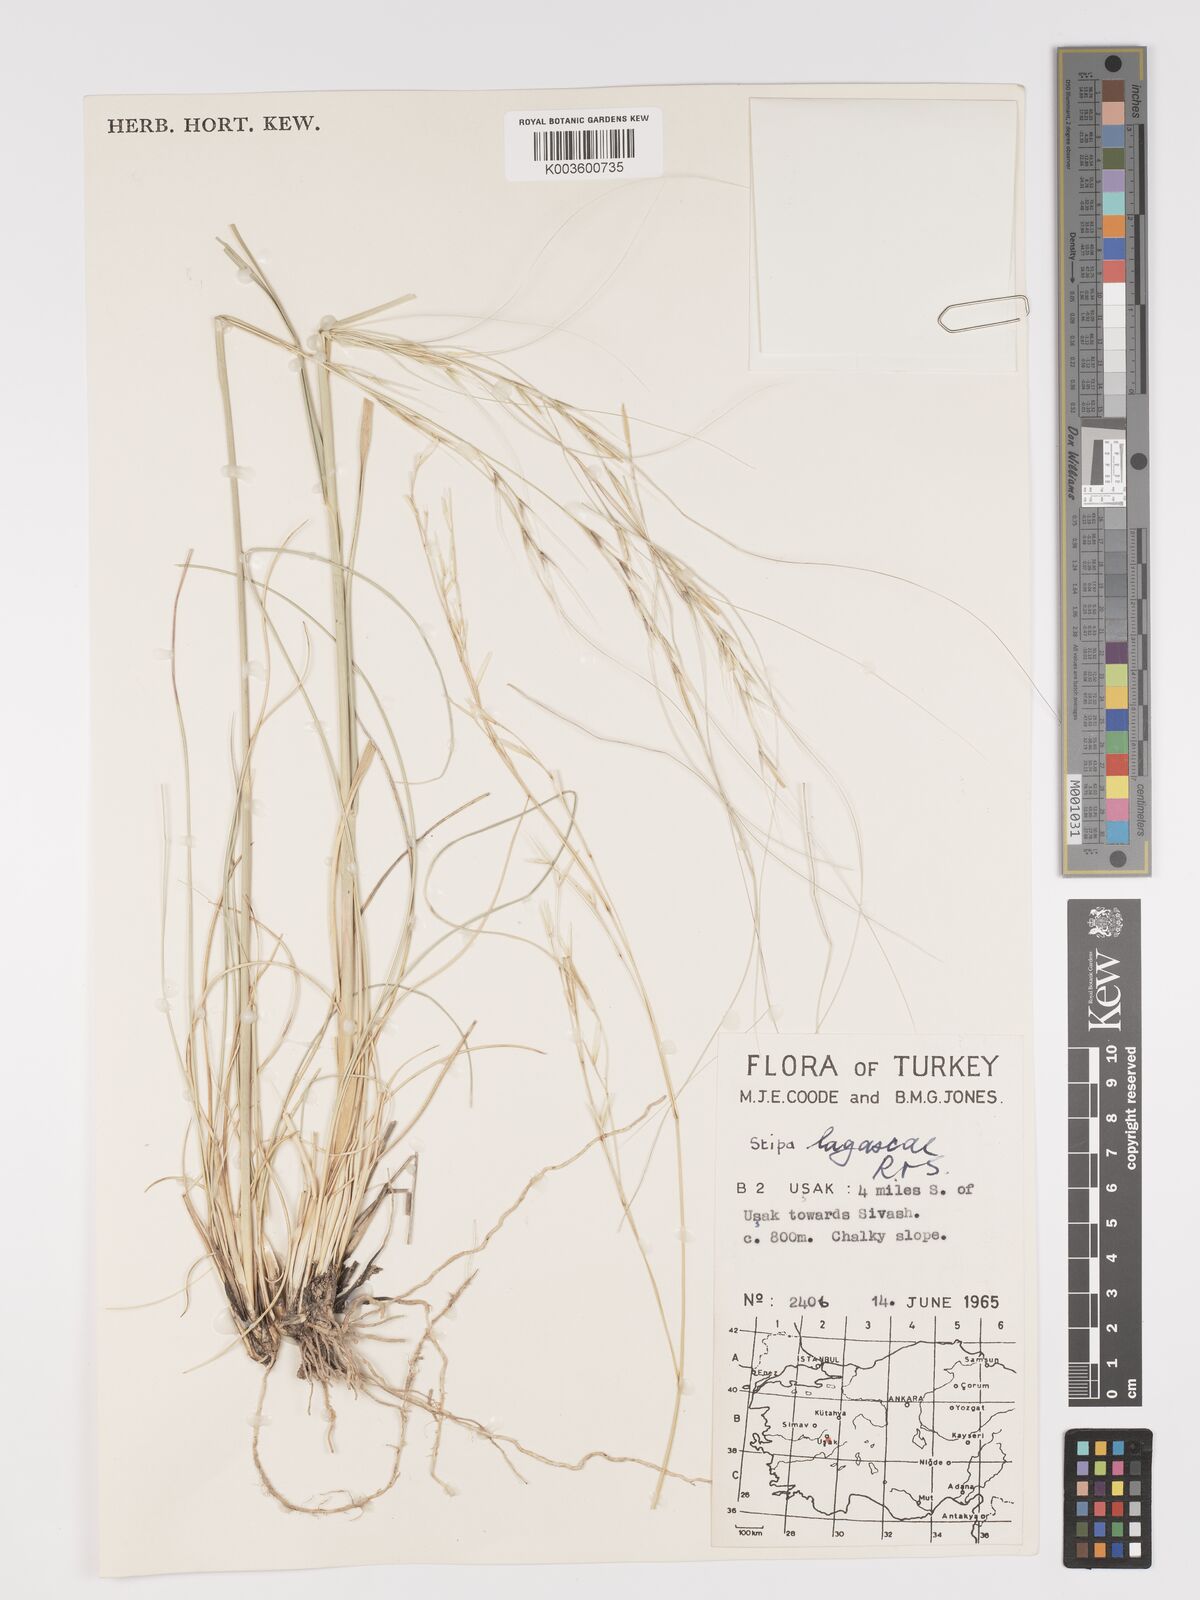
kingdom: Plantae
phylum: Tracheophyta
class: Liliopsida
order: Poales
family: Poaceae
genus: Stipa
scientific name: Stipa lagascae
